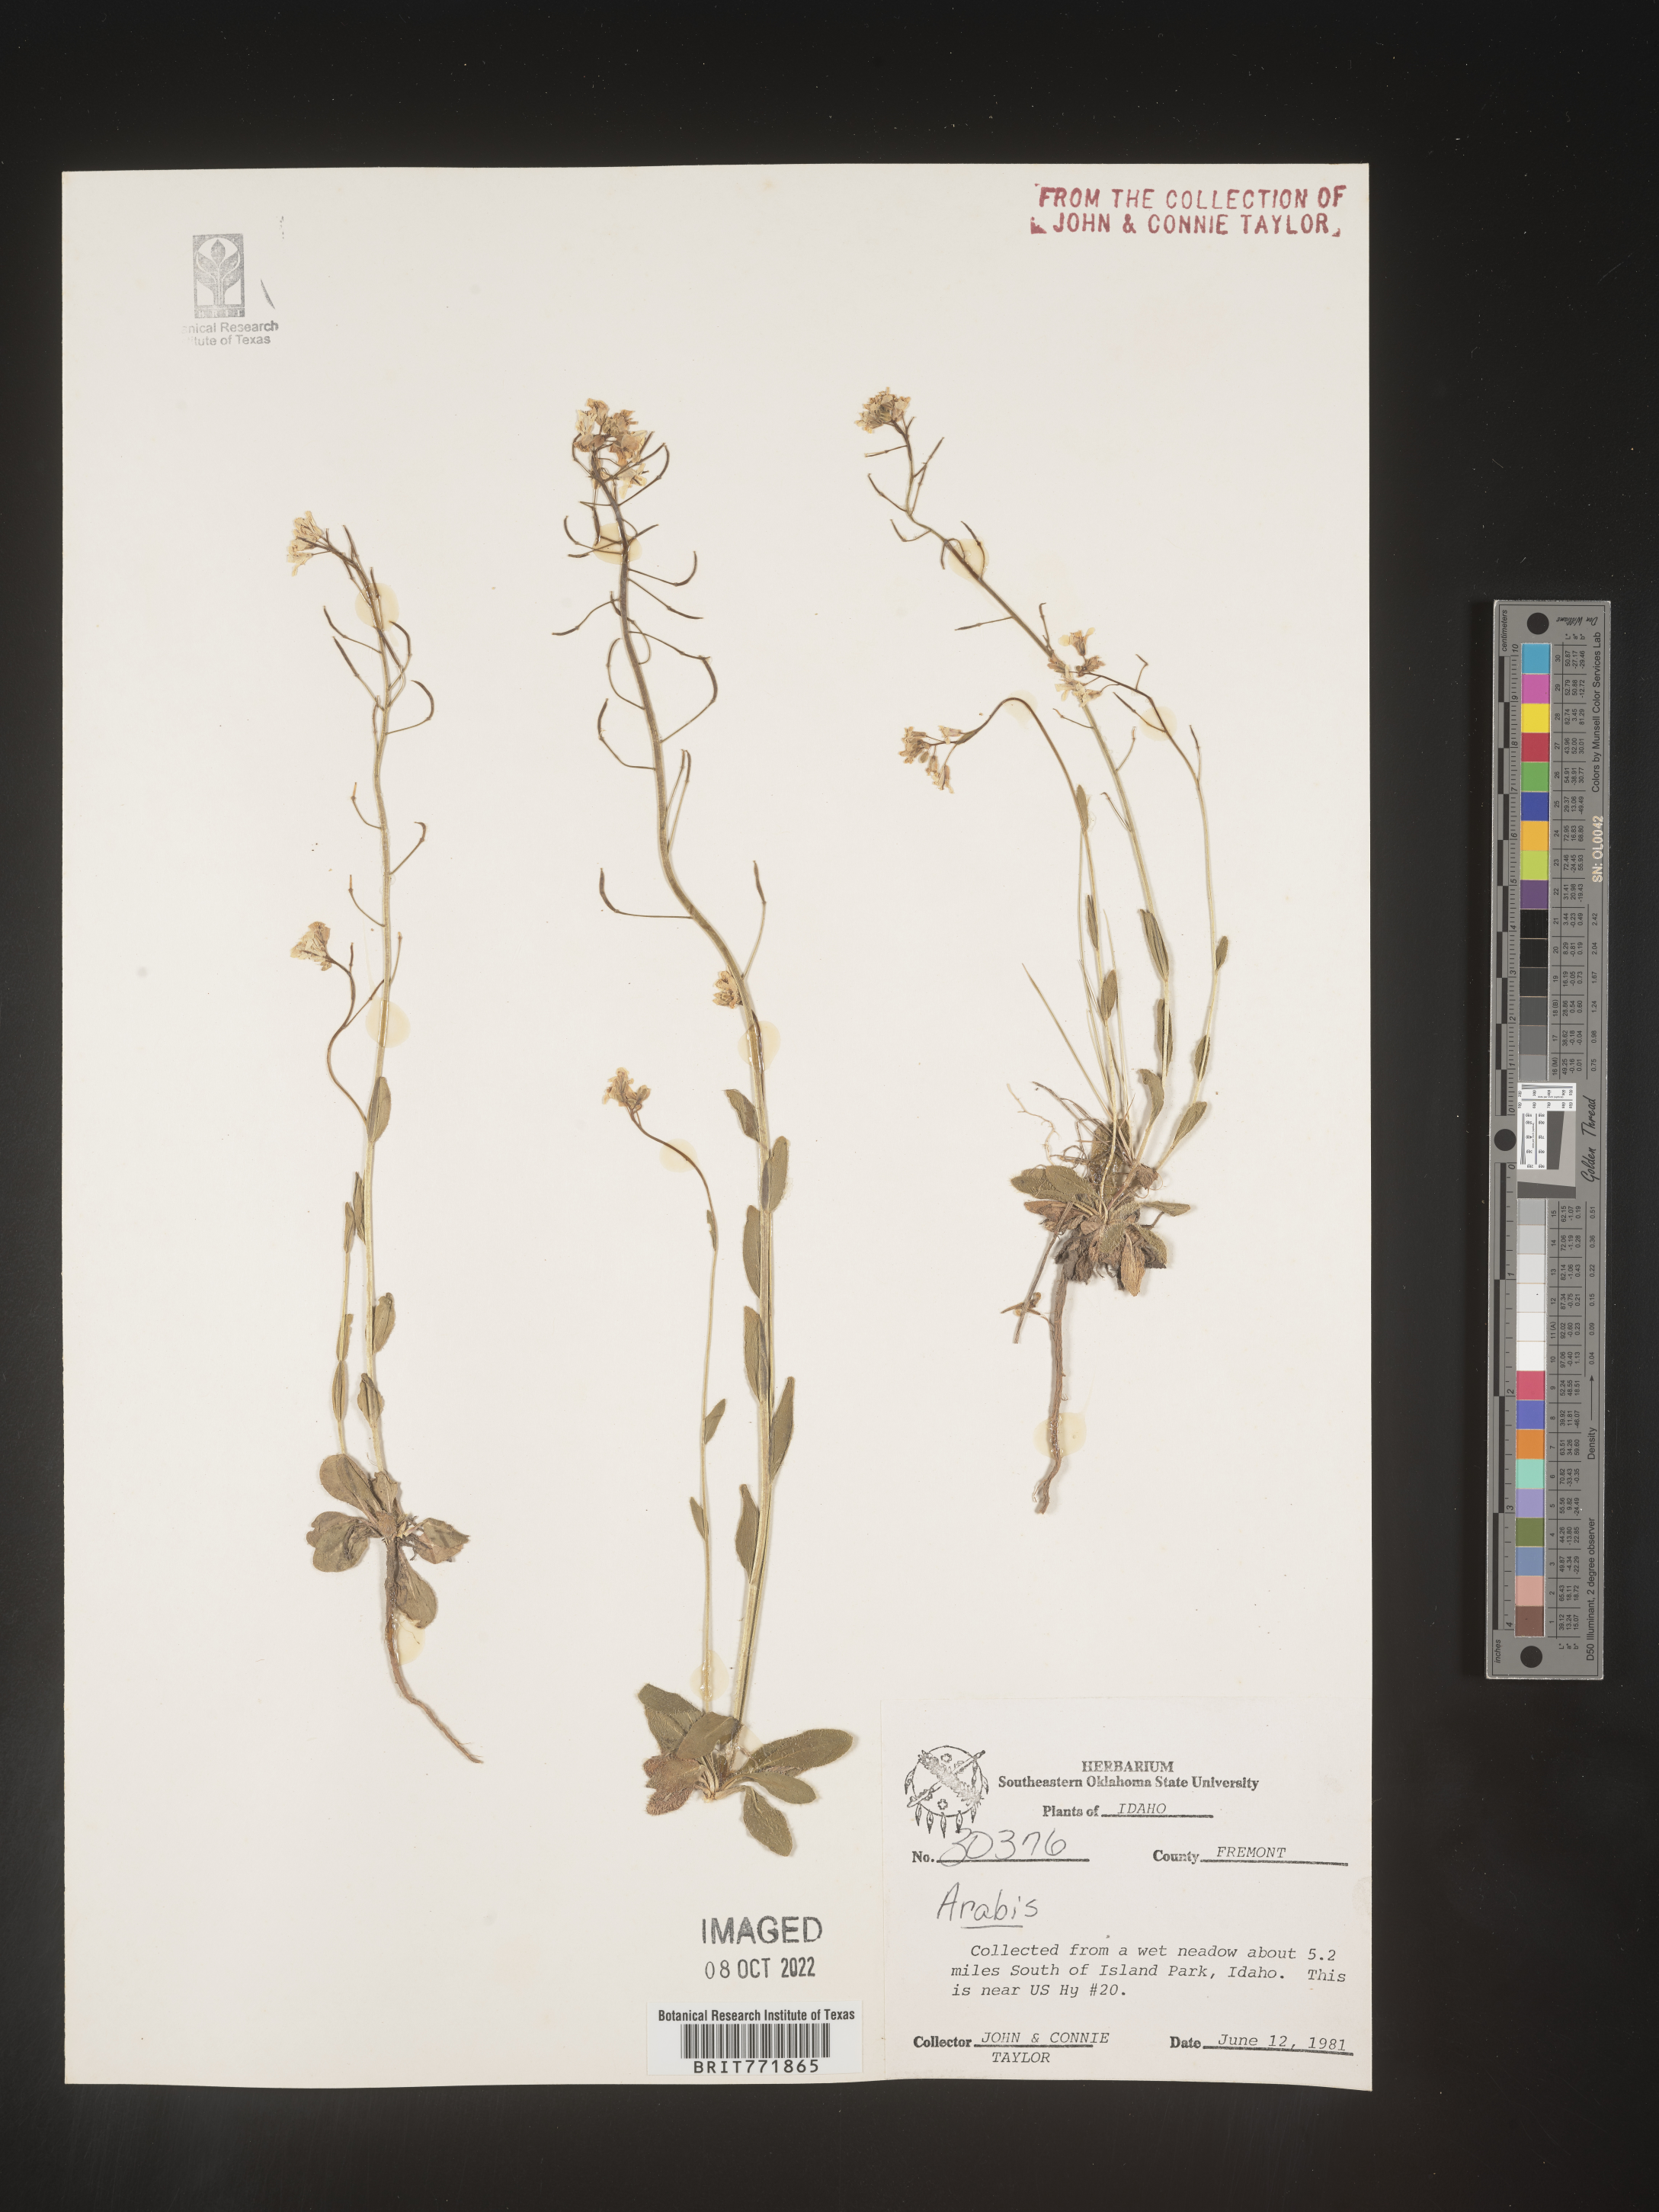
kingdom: Plantae
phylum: Tracheophyta
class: Magnoliopsida
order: Brassicales
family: Brassicaceae
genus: Arabis
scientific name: Arabis
